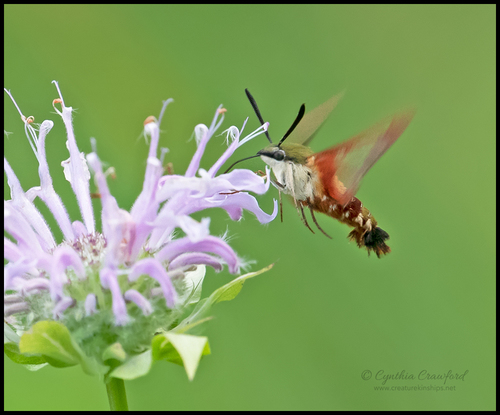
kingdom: Animalia
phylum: Arthropoda
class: Insecta
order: Lepidoptera
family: Sphingidae
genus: Hemaris
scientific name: Hemaris thysbe
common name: Common clear-wing
